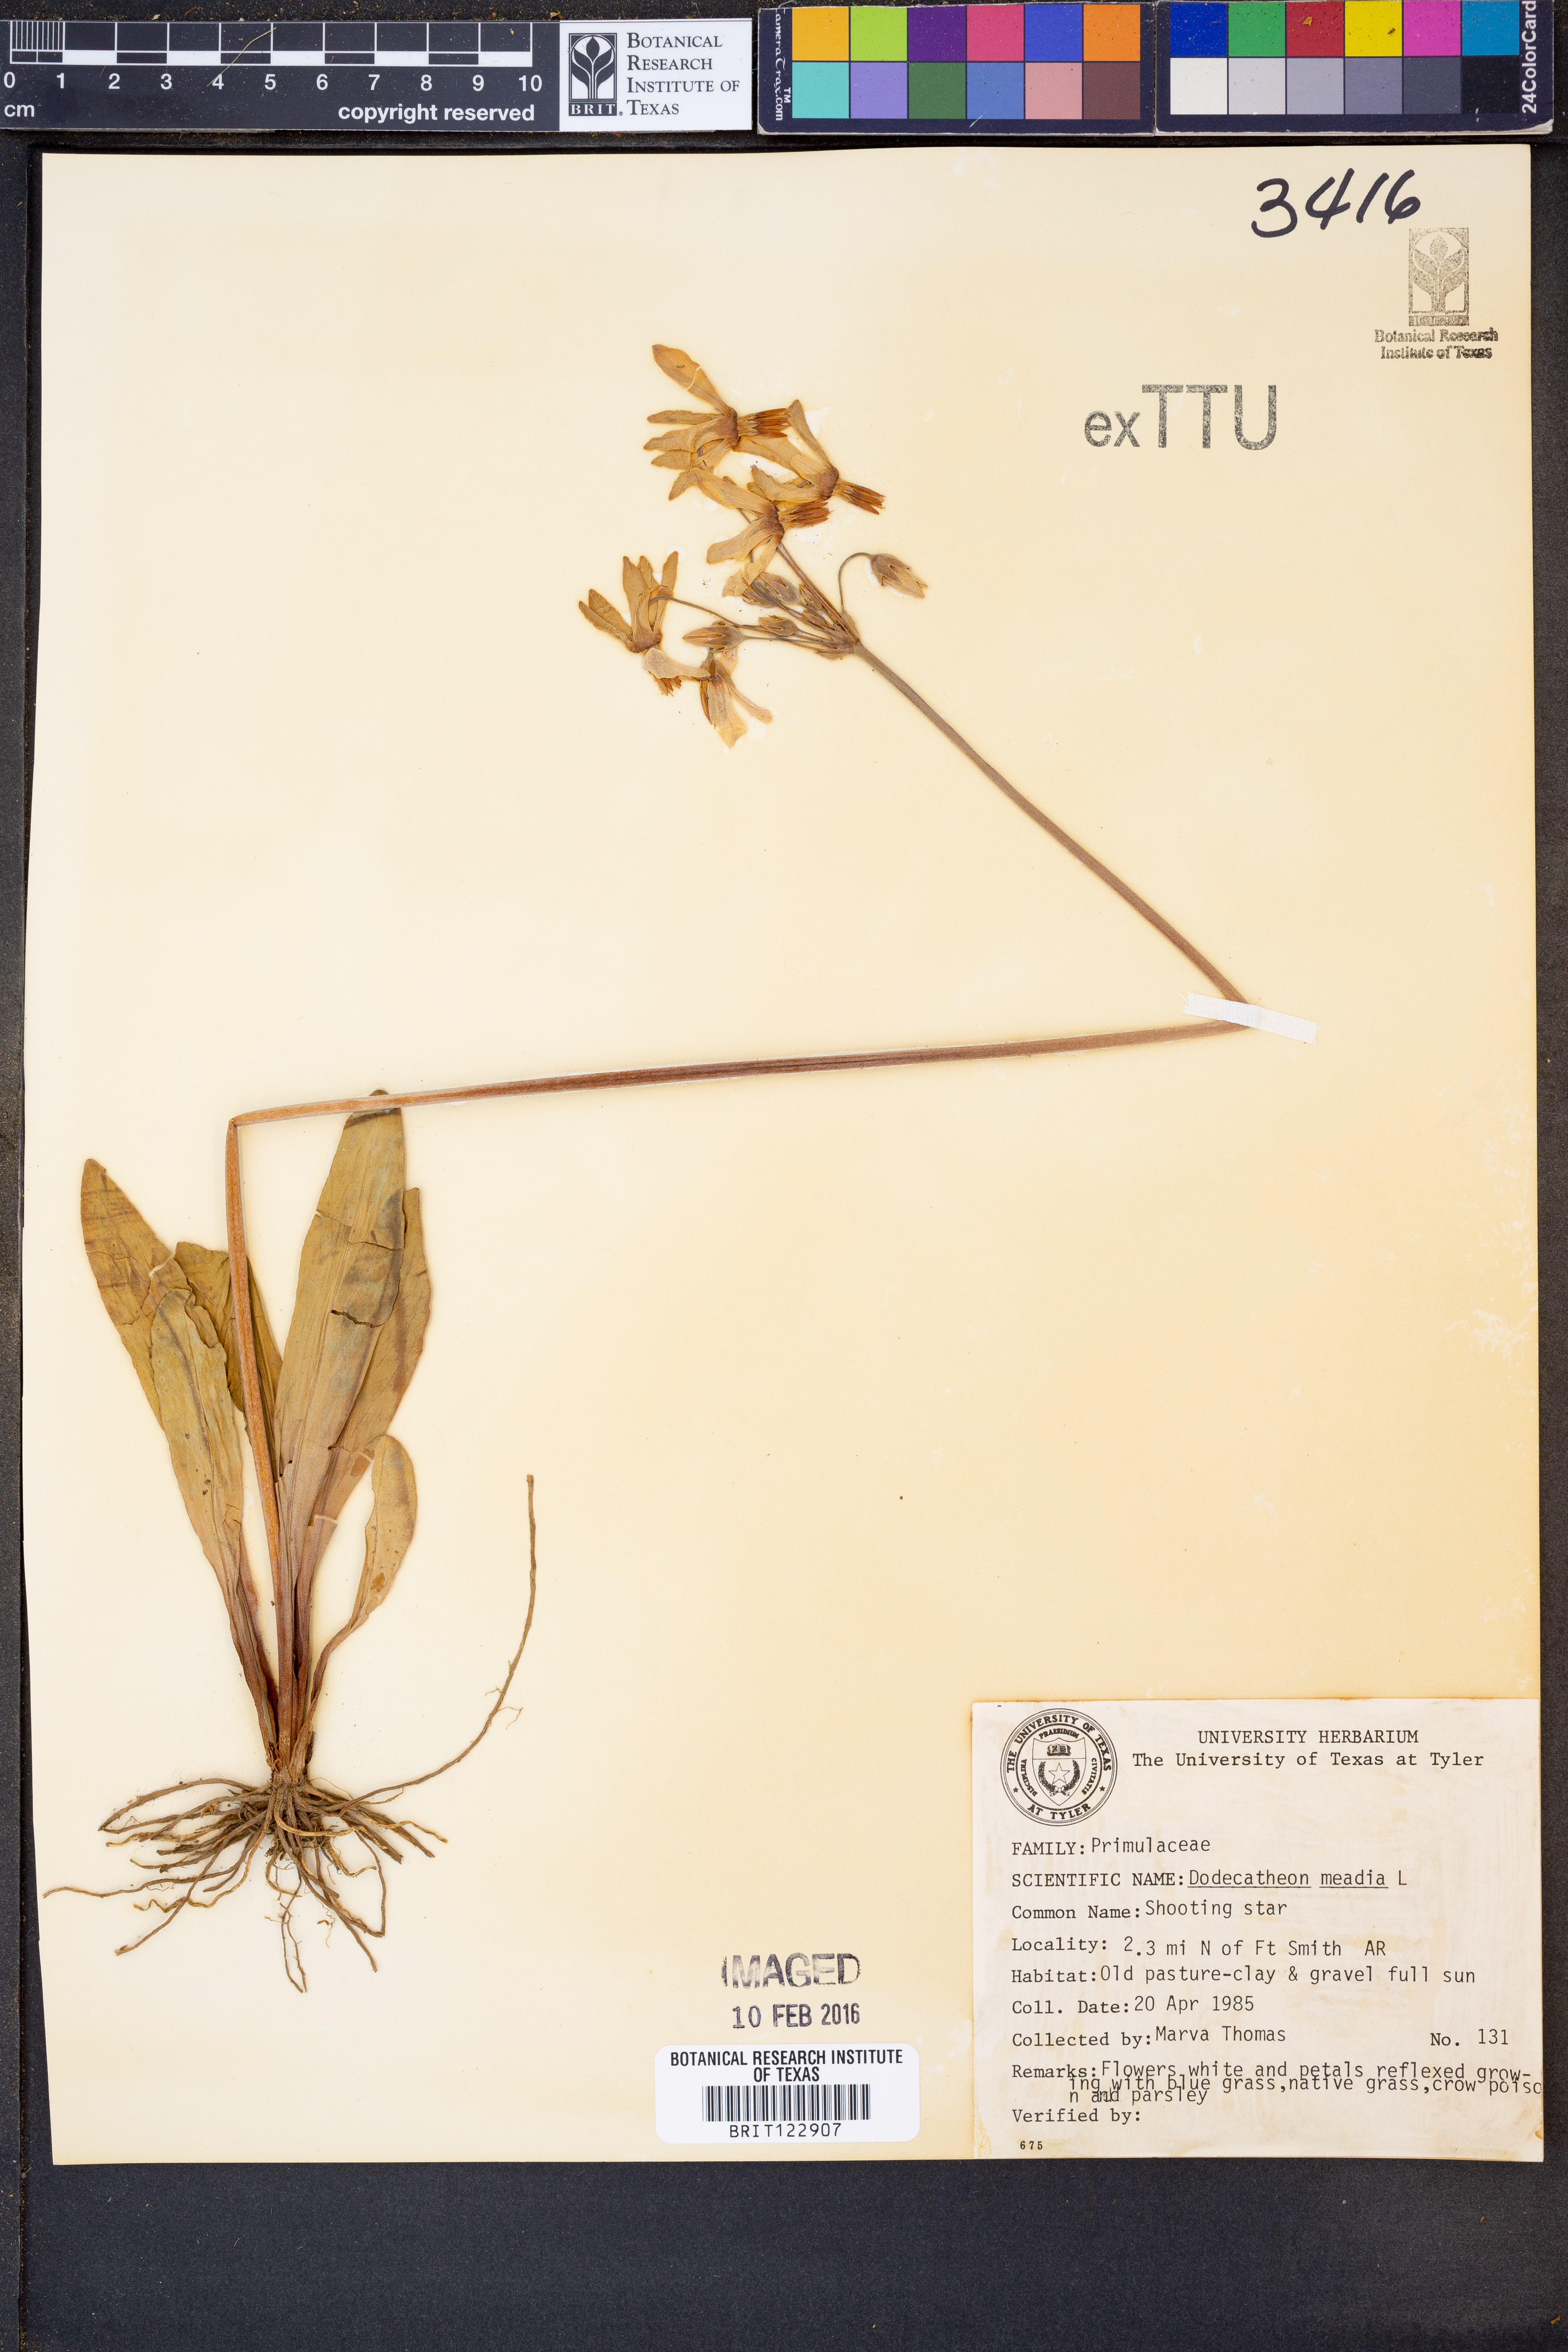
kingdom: Plantae
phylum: Tracheophyta
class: Magnoliopsida
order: Ericales
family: Primulaceae
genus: Dodecatheon
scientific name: Dodecatheon meadia
